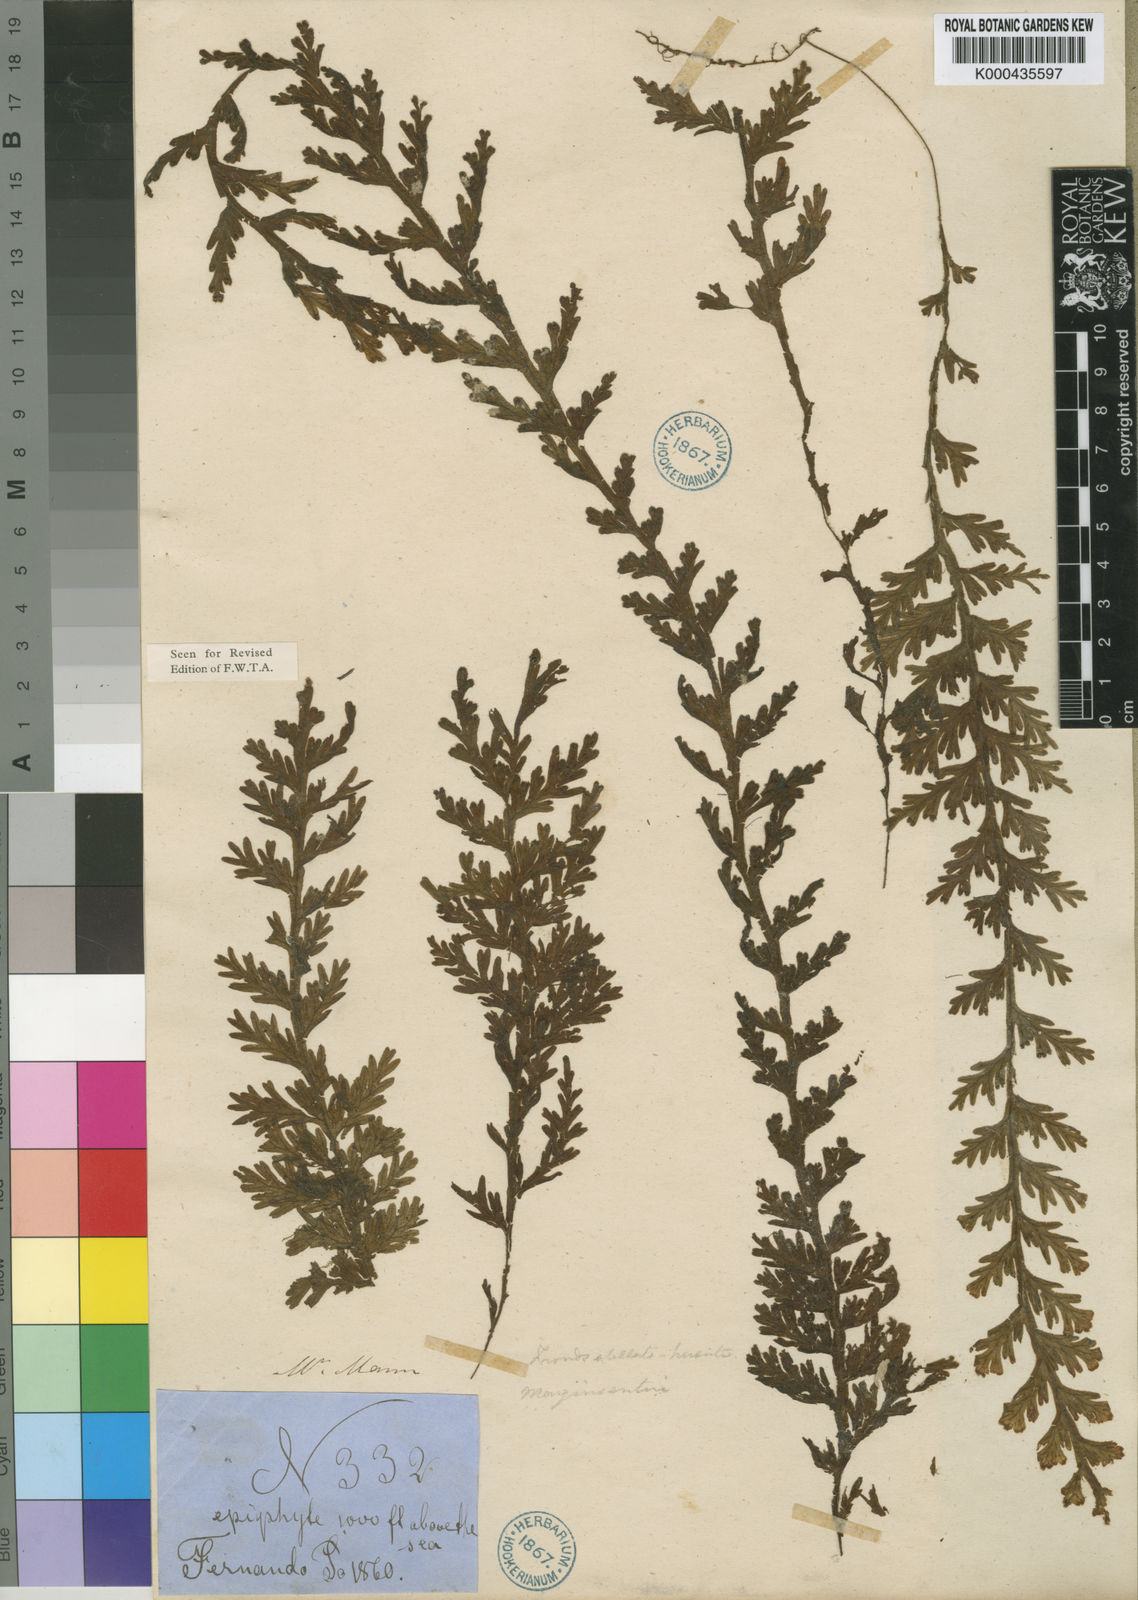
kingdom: Plantae
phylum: Tracheophyta
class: Polypodiopsida
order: Hymenophyllales
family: Hymenophyllaceae
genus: Hymenophyllum
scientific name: Hymenophyllum splendidum
